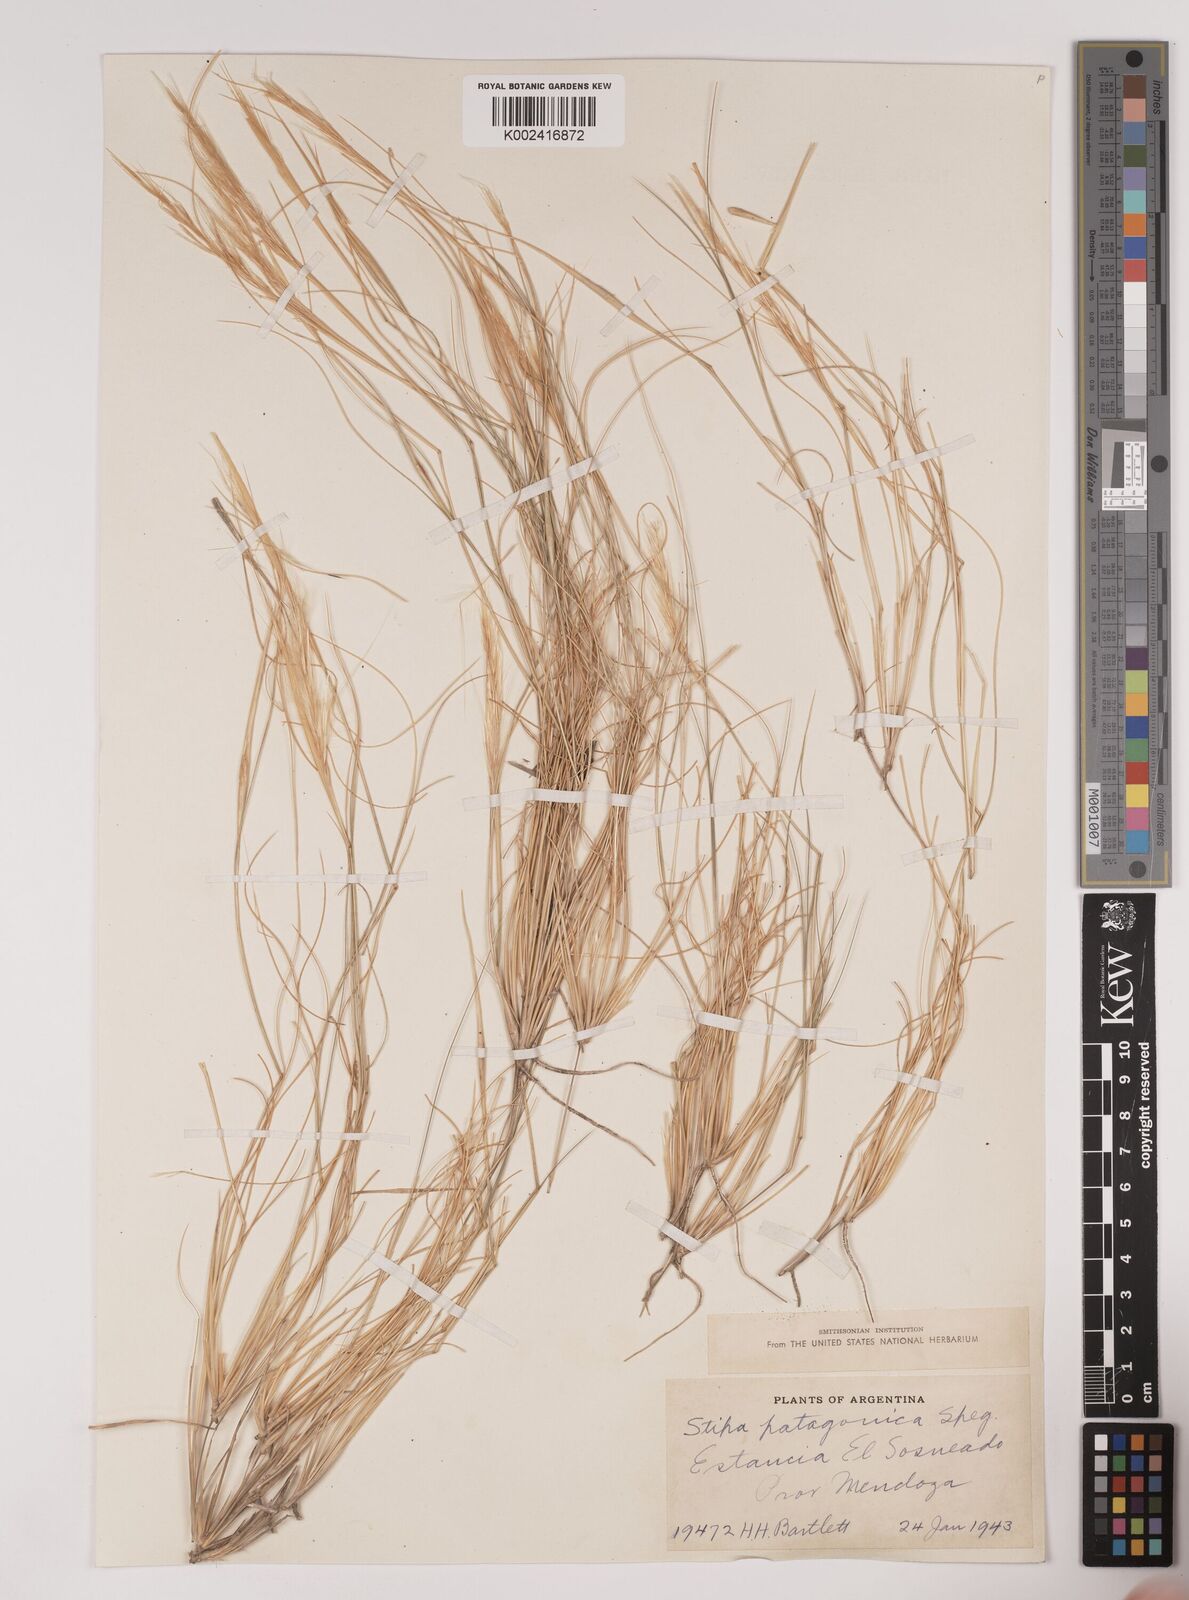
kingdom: Plantae
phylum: Tracheophyta
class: Liliopsida
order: Poales
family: Poaceae
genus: Pappostipa
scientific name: Pappostipa patagonica
